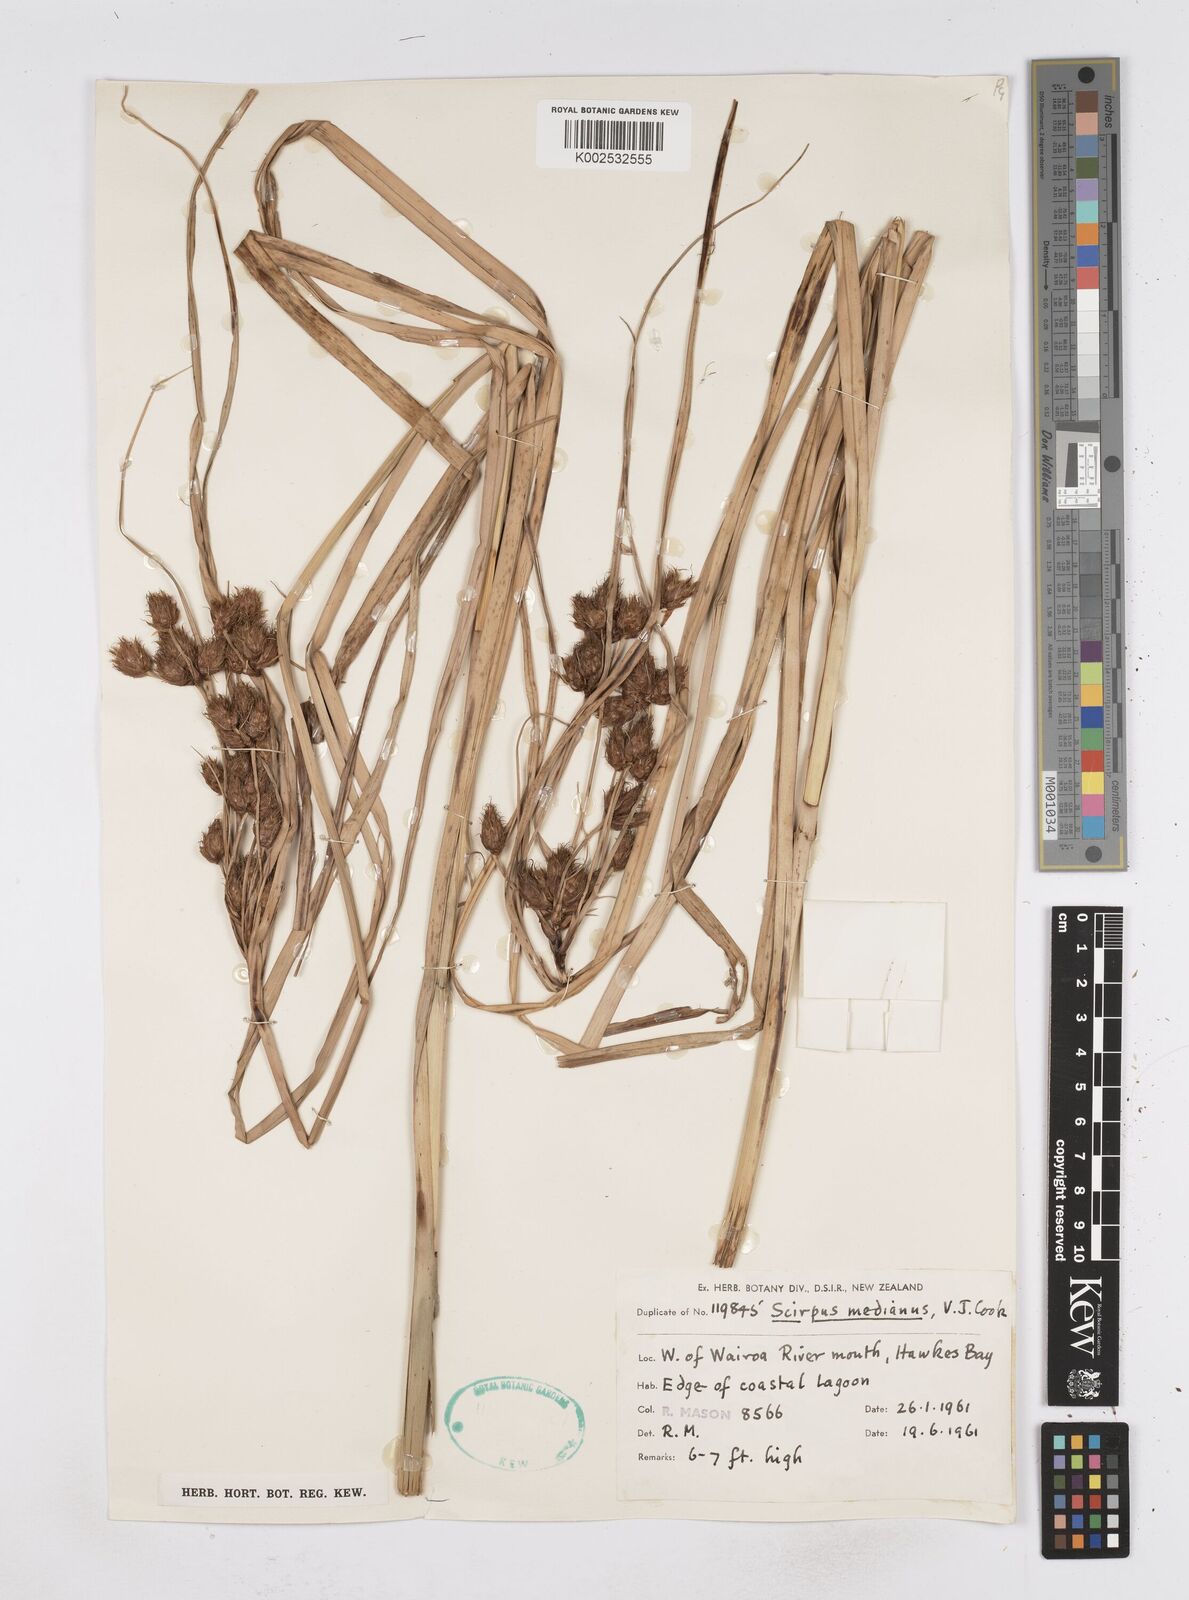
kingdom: Plantae
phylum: Tracheophyta
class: Liliopsida
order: Poales
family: Cyperaceae
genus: Bolboschoenus
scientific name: Bolboschoenus medianus
